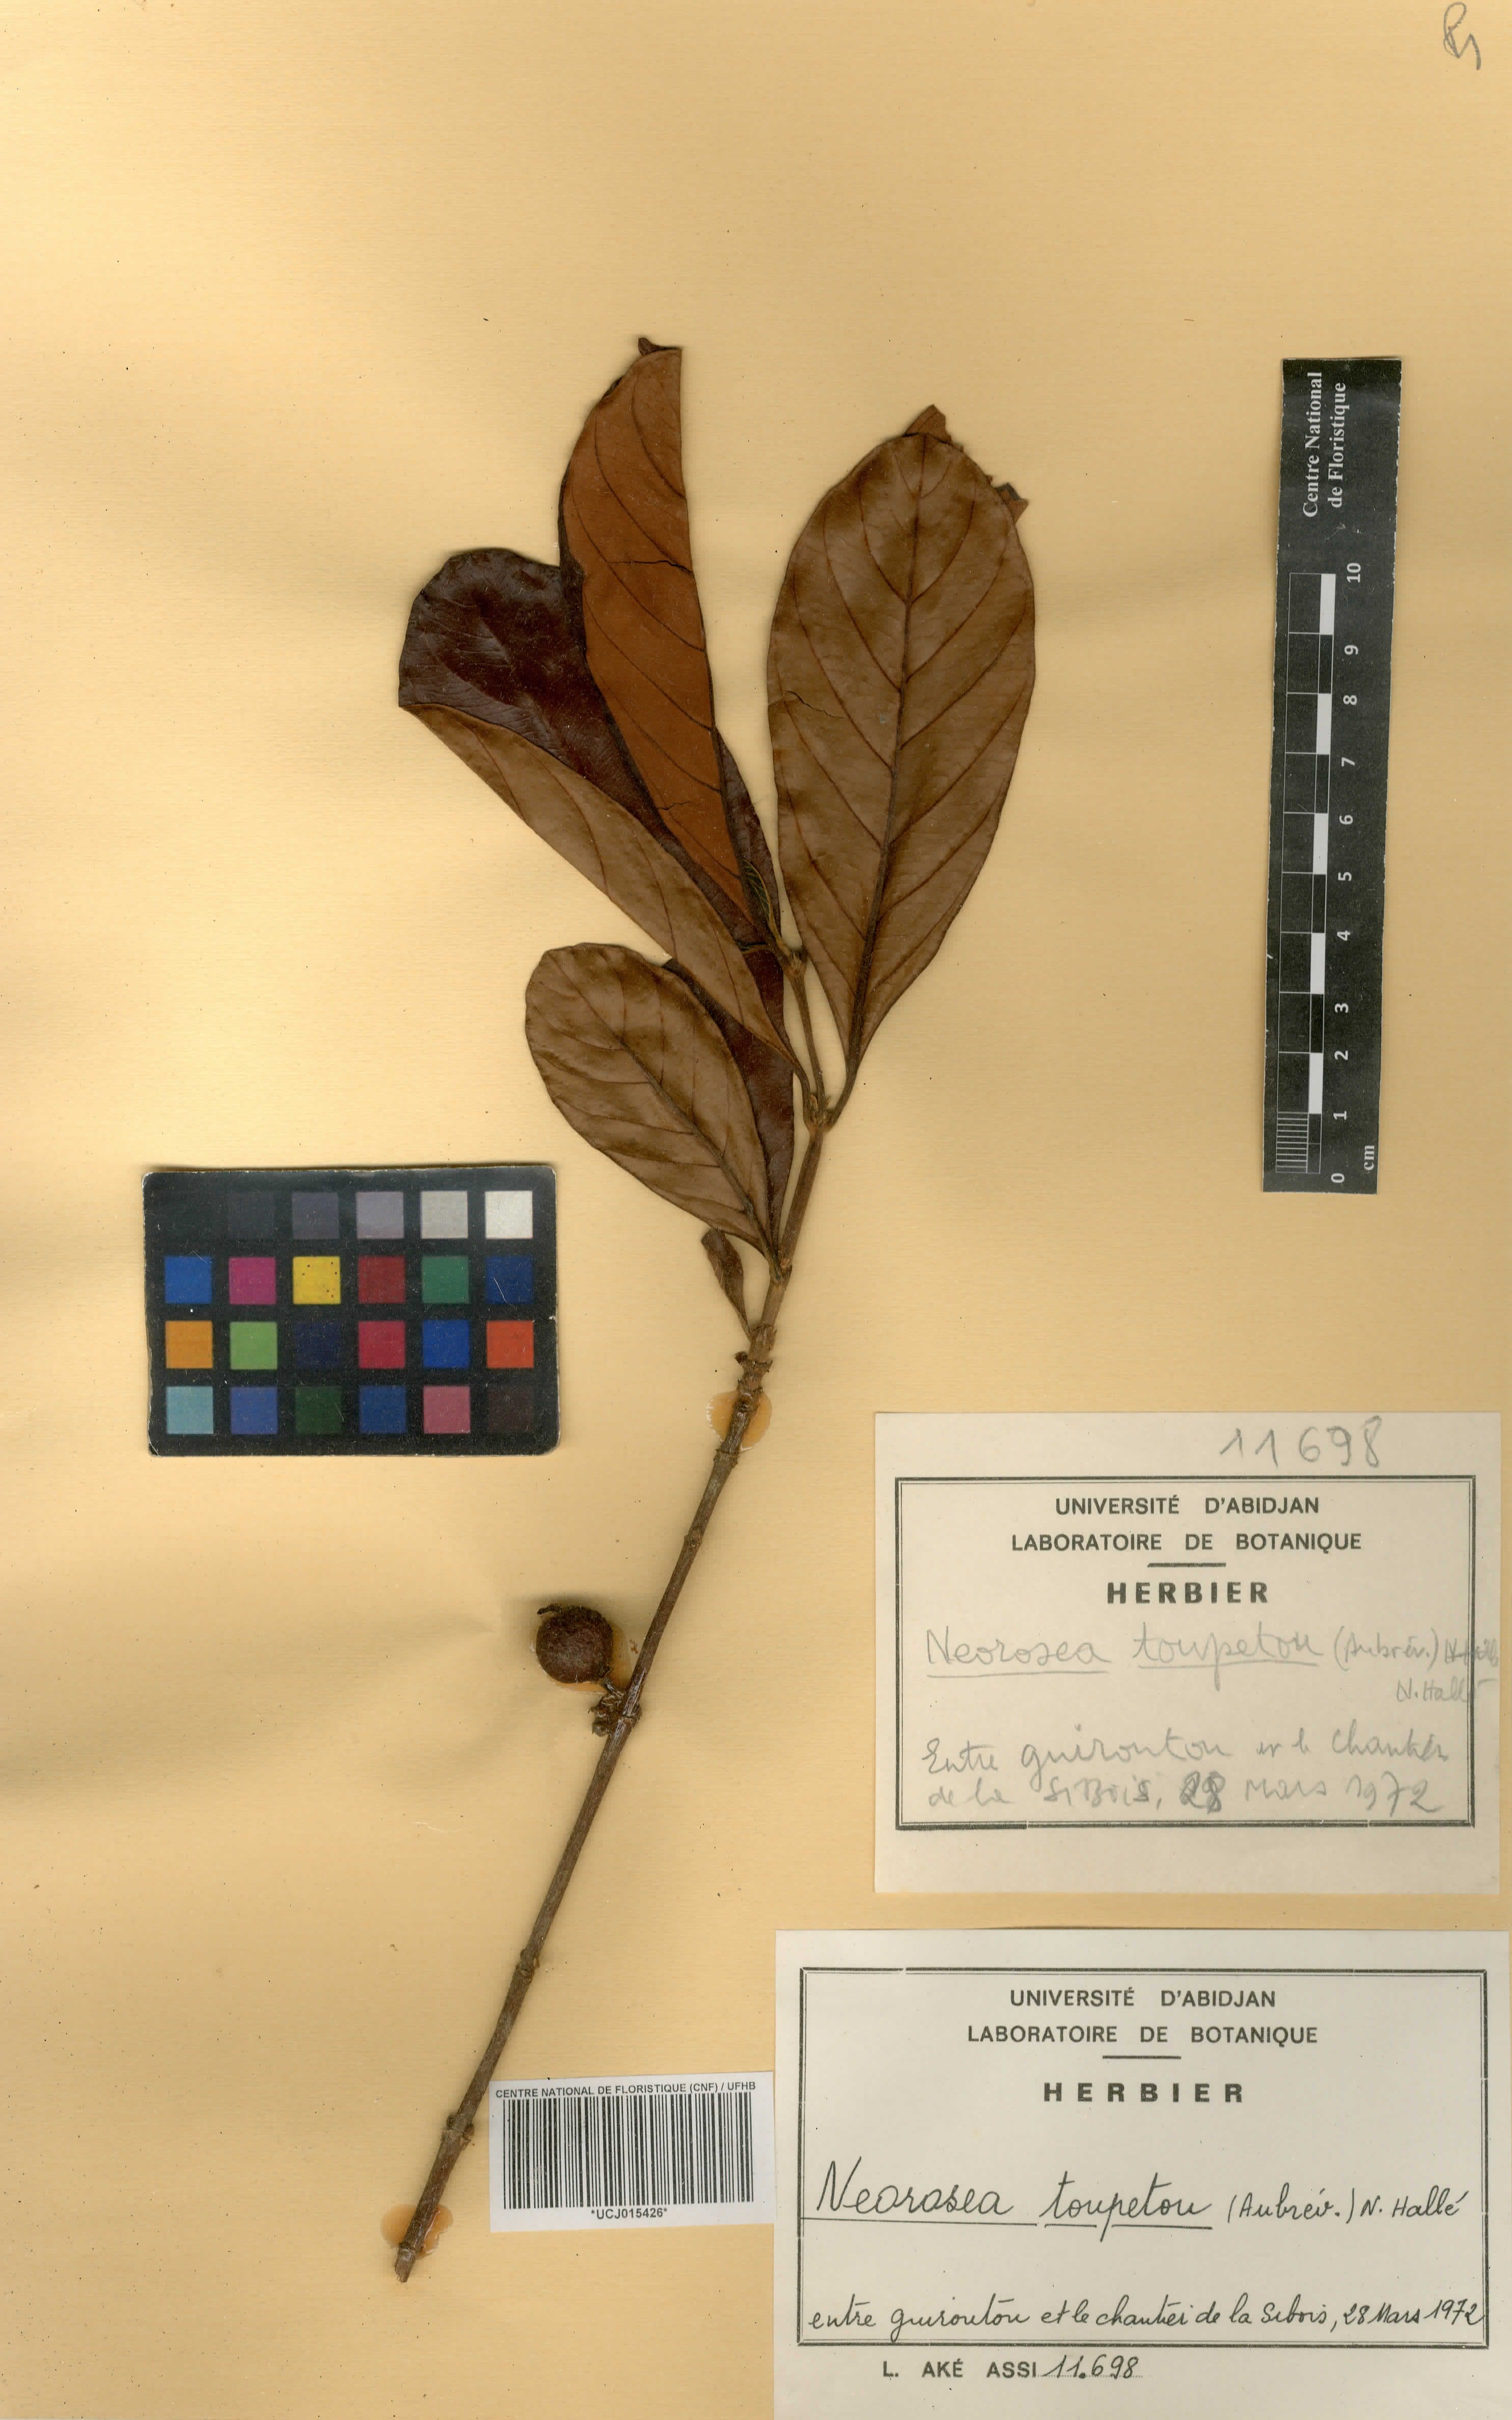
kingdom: Plantae
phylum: Tracheophyta
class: Magnoliopsida
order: Gentianales
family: Rubiaceae
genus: Sericanthe
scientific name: Sericanthe toupetou
